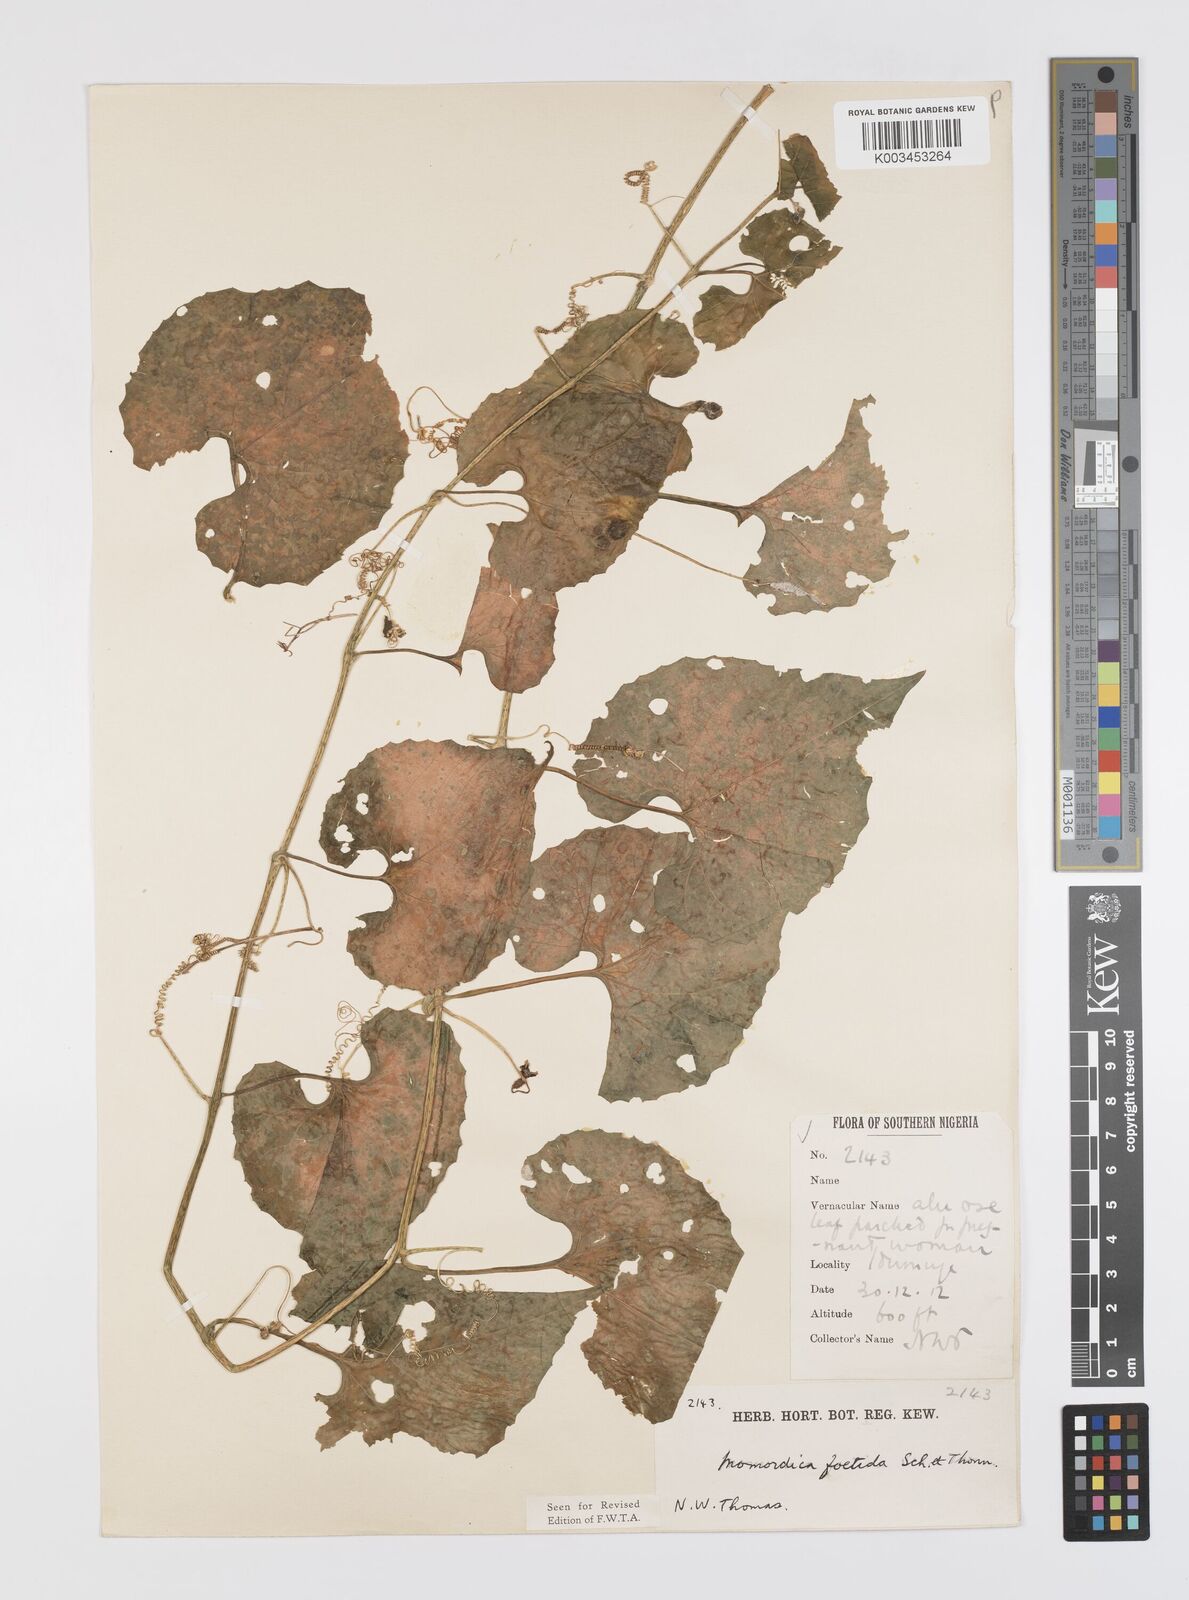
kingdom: Plantae
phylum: Tracheophyta
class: Magnoliopsida
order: Cucurbitales
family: Cucurbitaceae
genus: Momordica
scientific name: Momordica foetida
